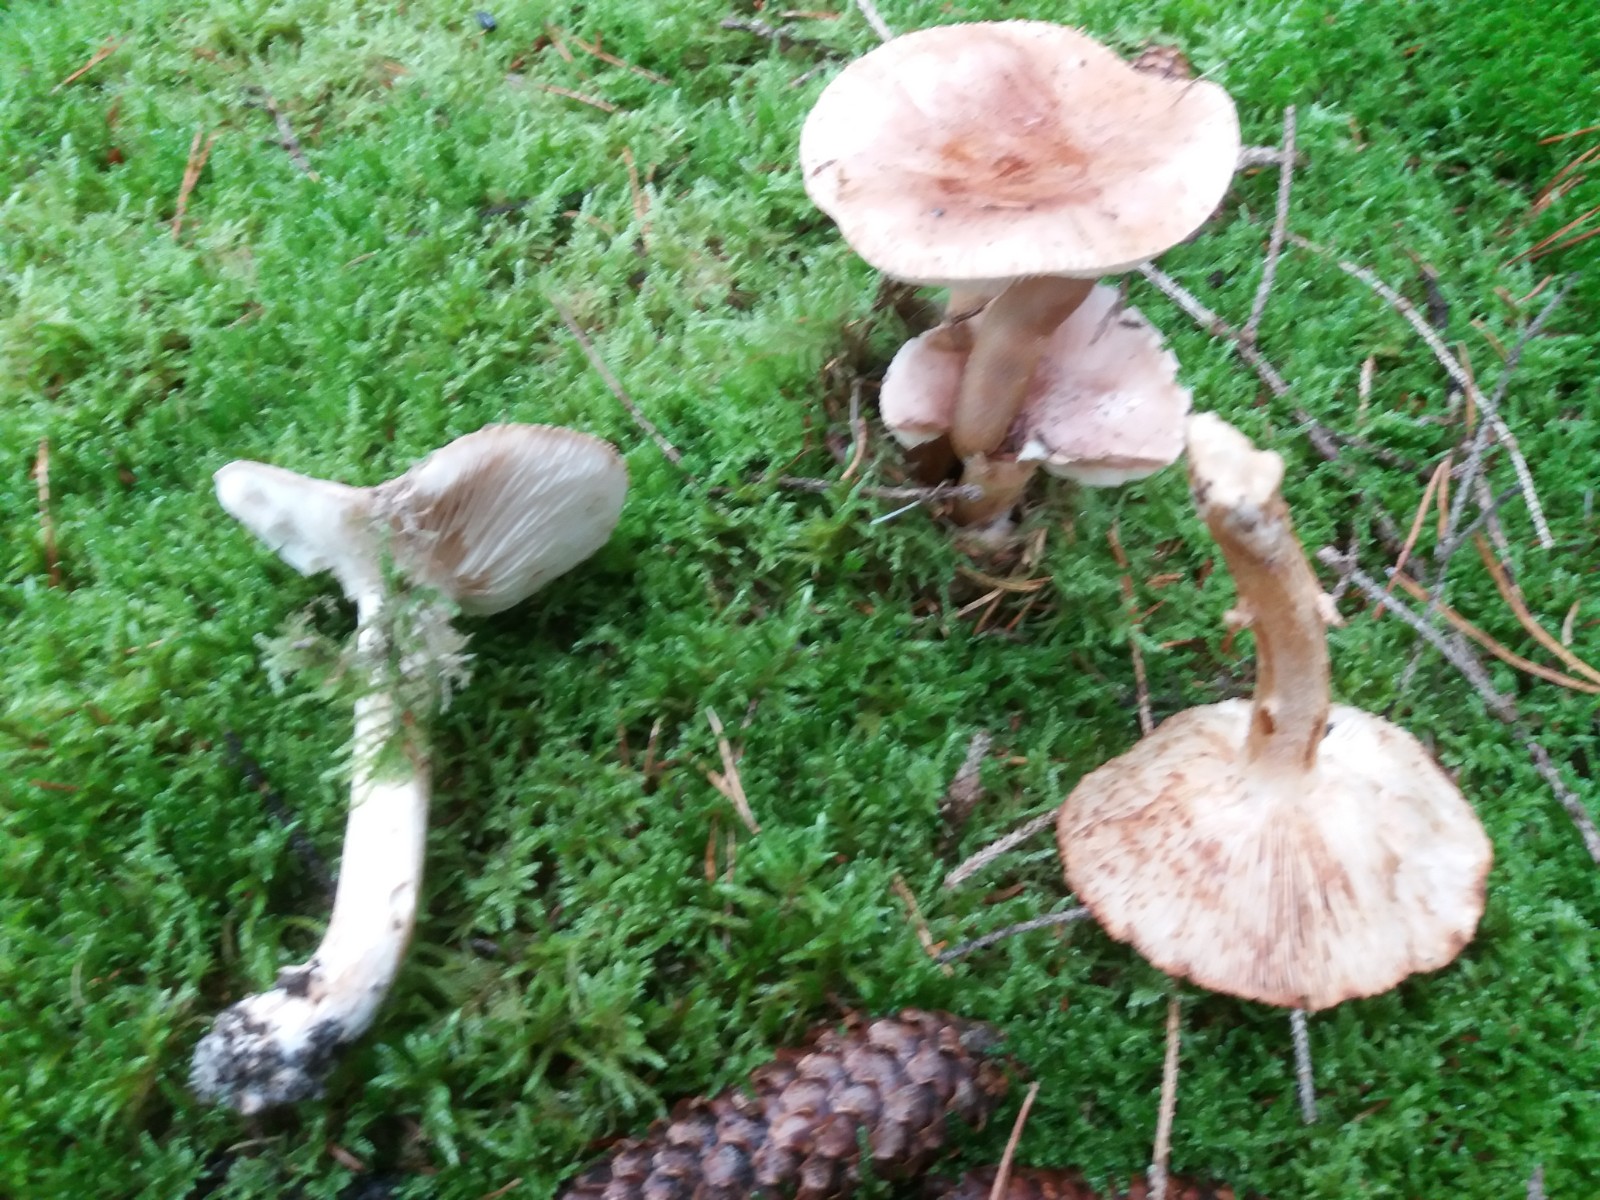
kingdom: Fungi
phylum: Basidiomycota
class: Agaricomycetes
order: Agaricales
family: Tricholomataceae
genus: Tricholoma
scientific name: Tricholoma stans
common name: stolt ridderhat
